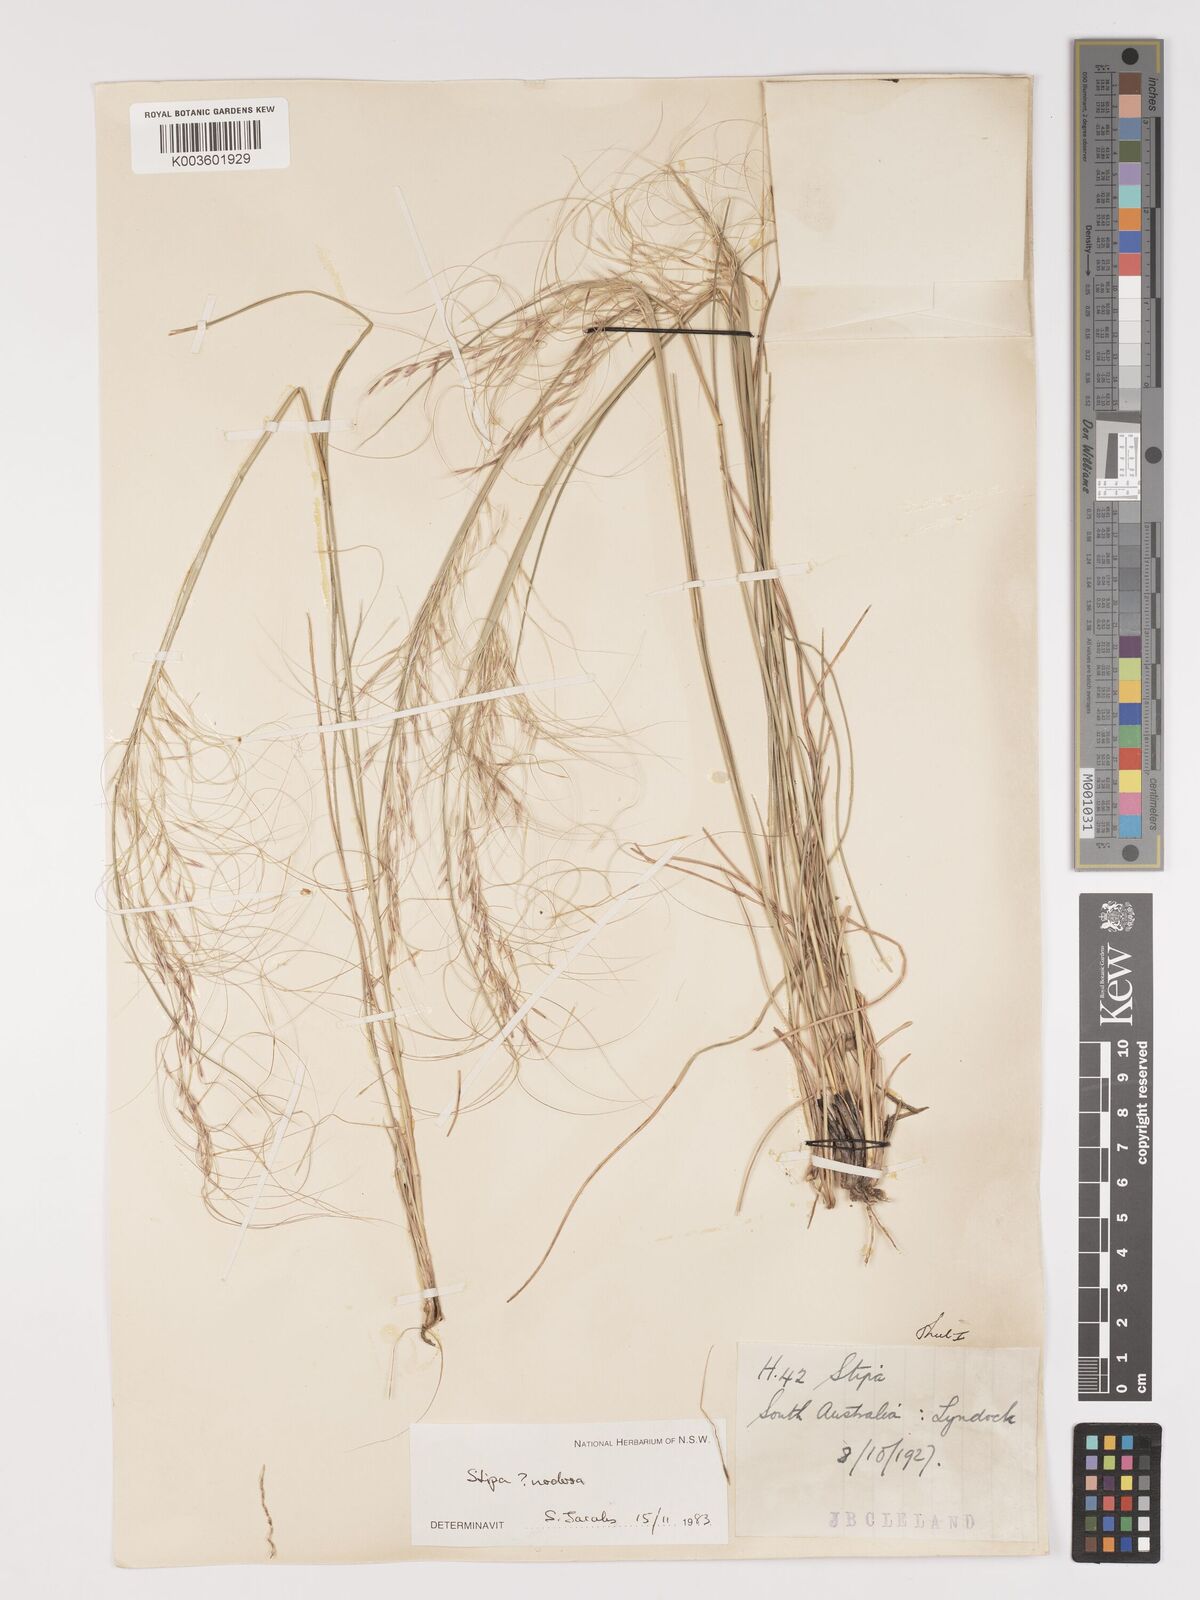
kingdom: Plantae
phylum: Tracheophyta
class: Liliopsida
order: Poales
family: Poaceae
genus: Austrostipa
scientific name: Austrostipa nodosa
